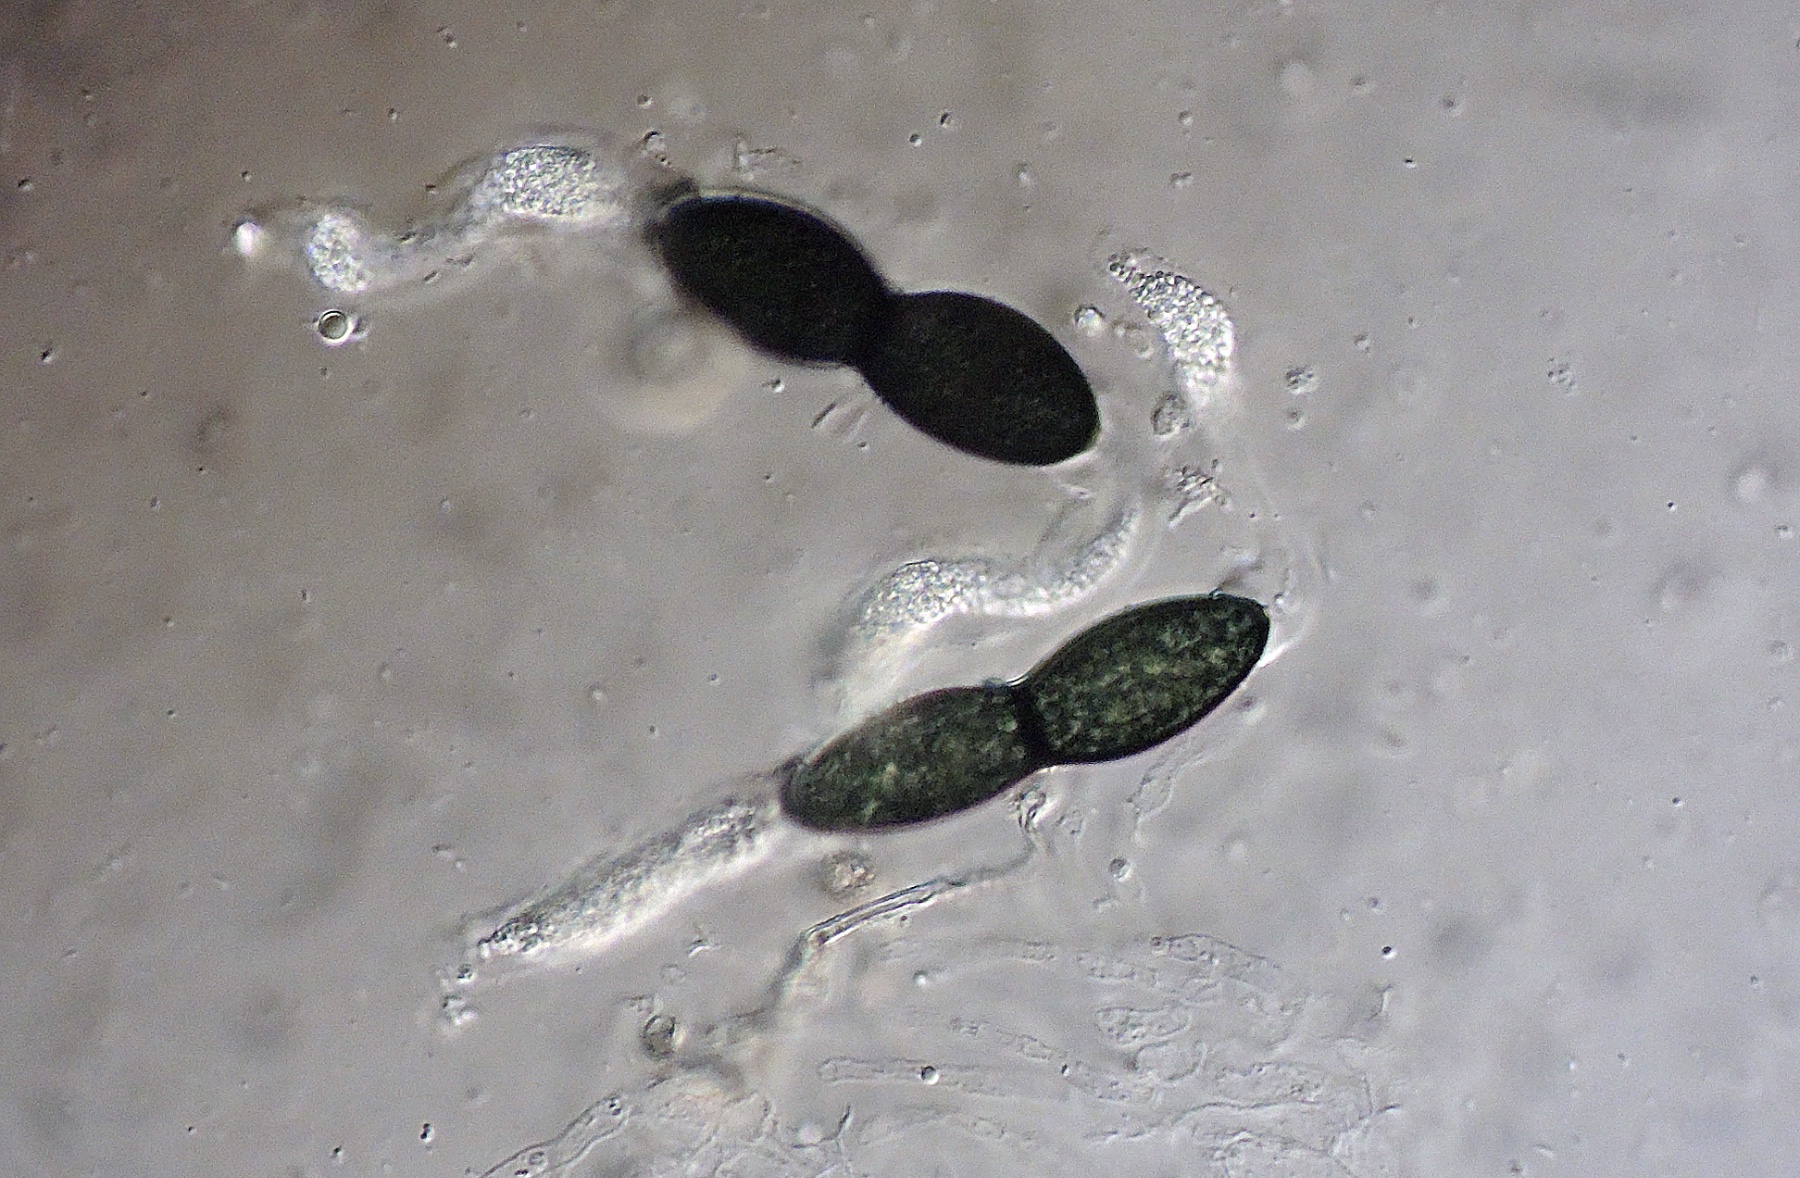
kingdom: Fungi
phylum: Ascomycota
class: Sordariomycetes
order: Sordariales
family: Zygospermellaceae
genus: Zygospermella
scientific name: Zygospermella insignis
